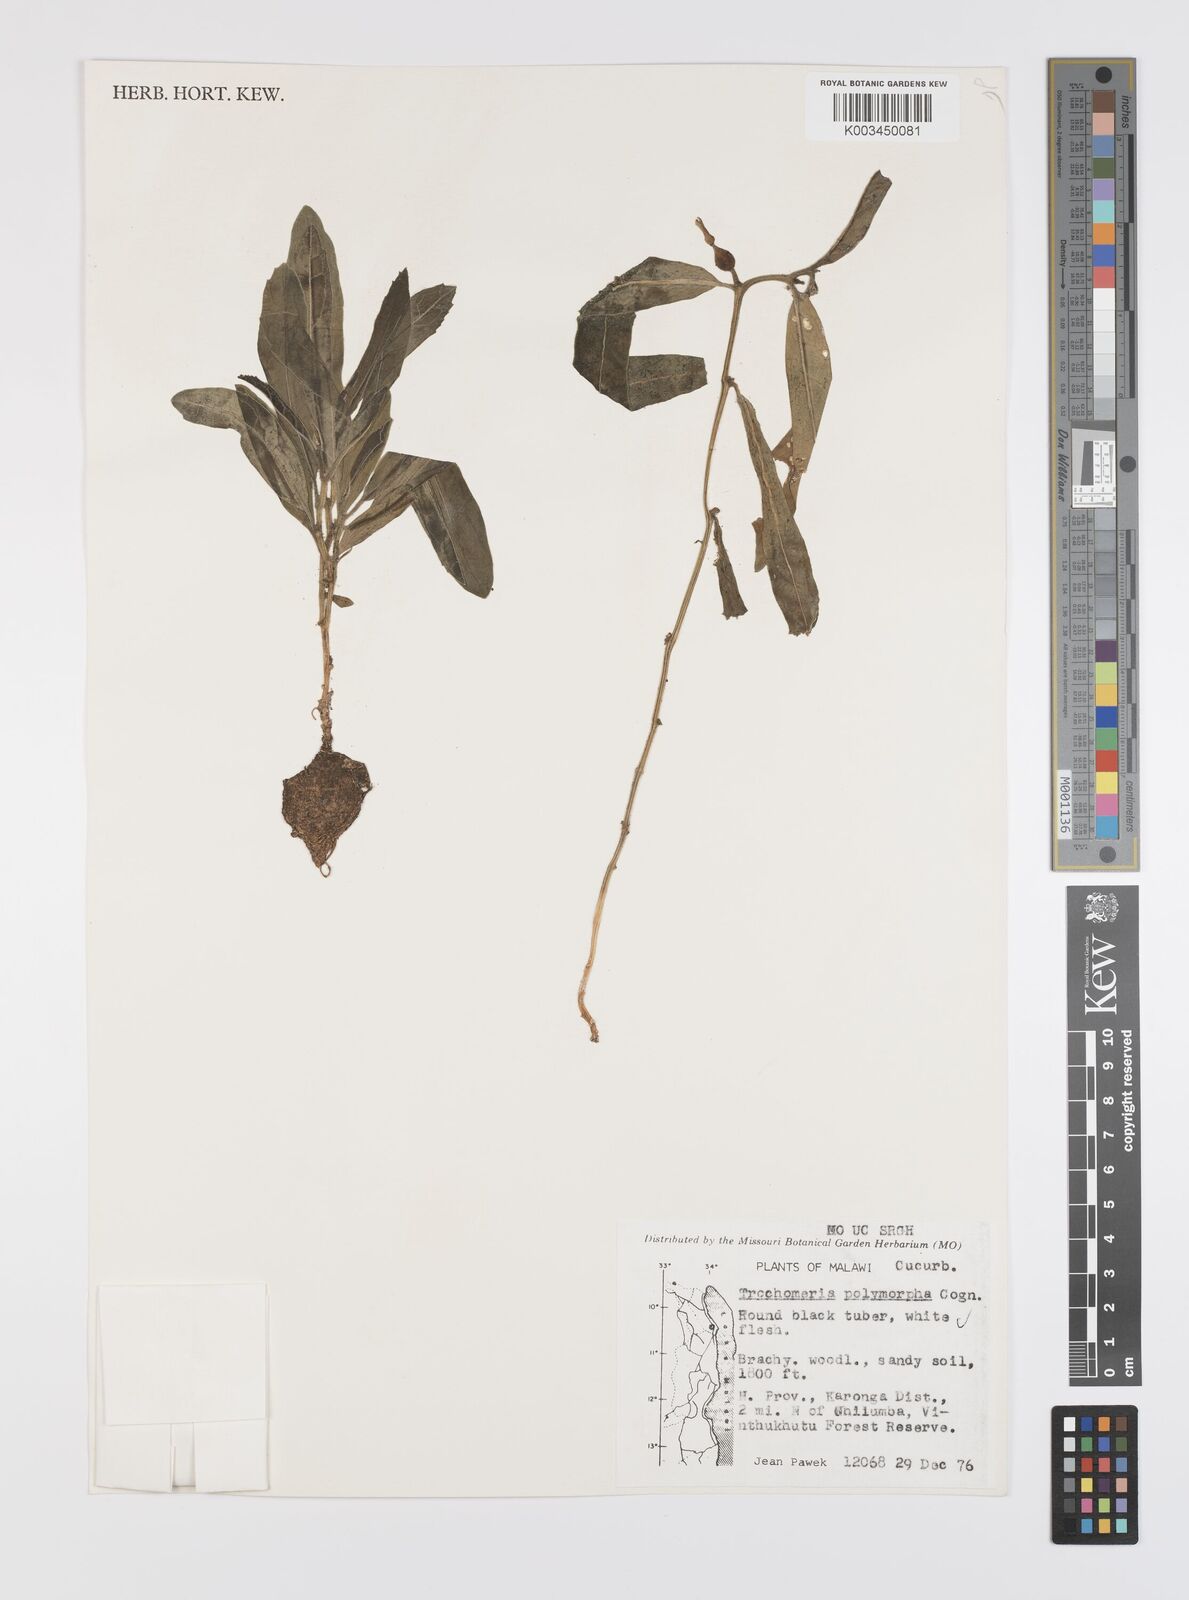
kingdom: Plantae
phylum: Tracheophyta
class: Magnoliopsida
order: Cucurbitales
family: Cucurbitaceae
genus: Trochomeria
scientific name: Trochomeria polymorpha
